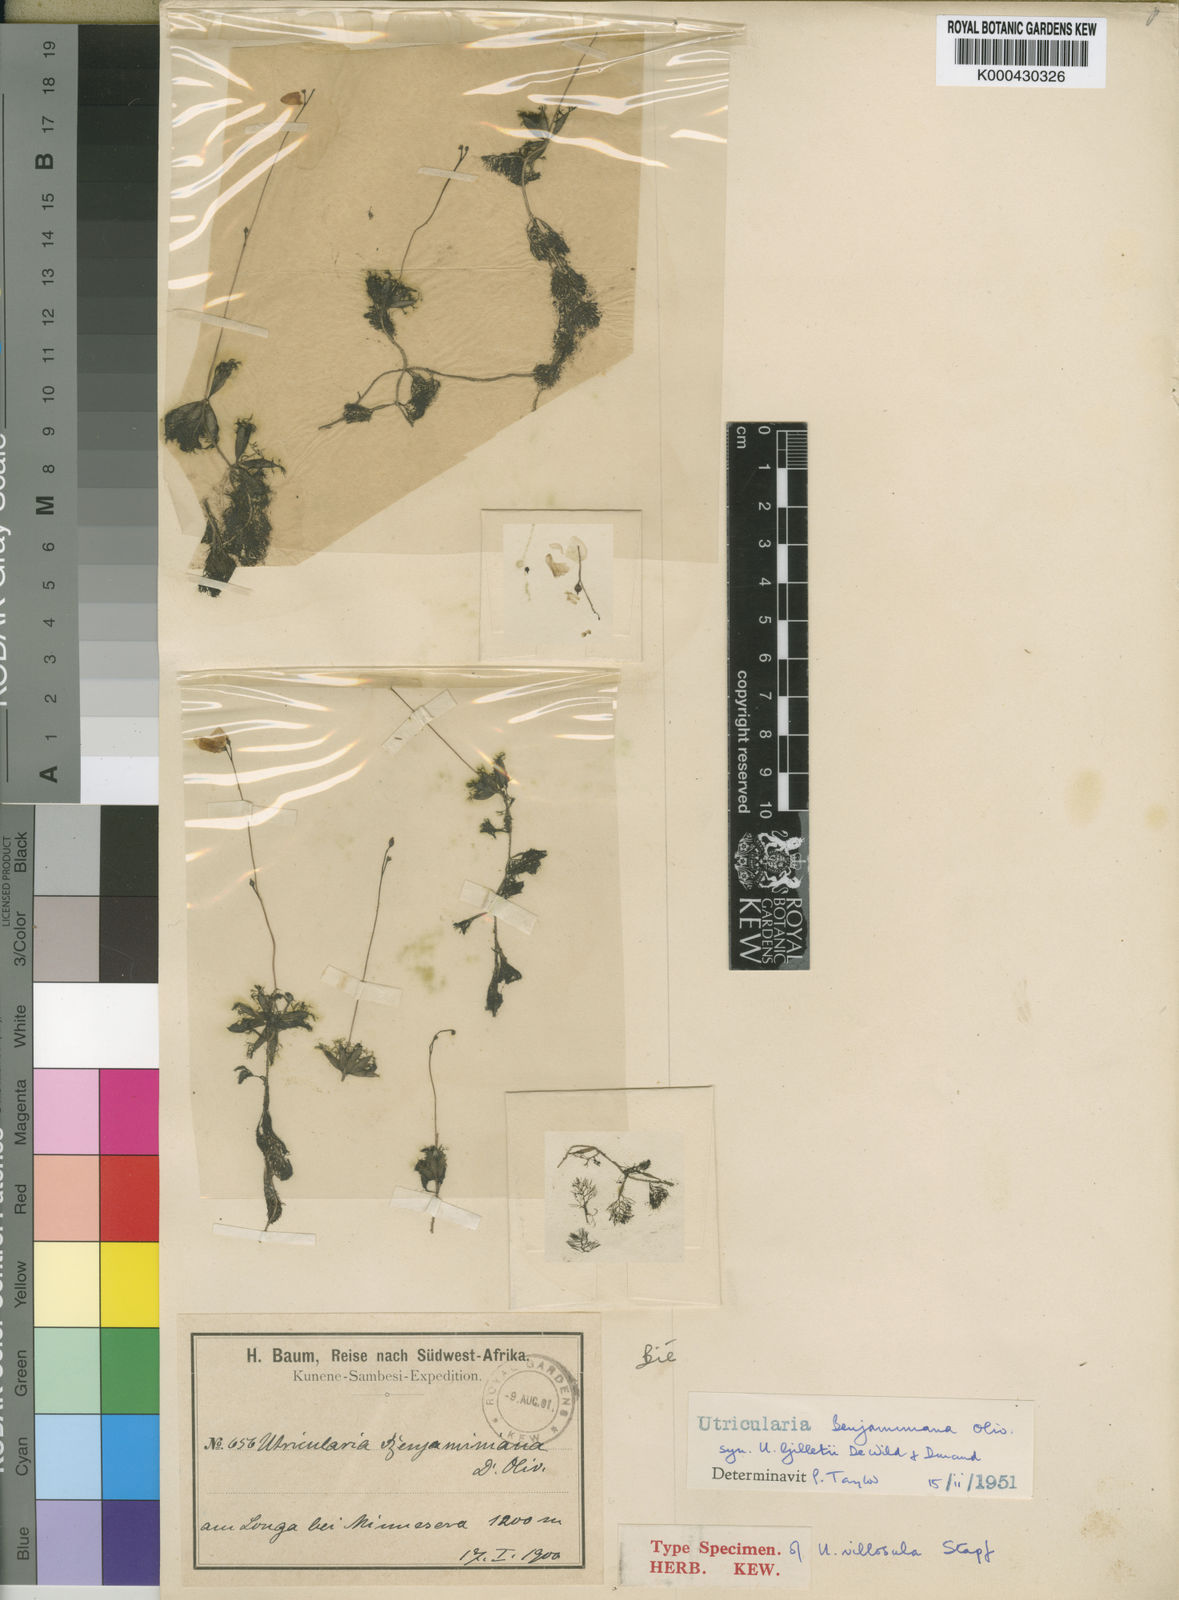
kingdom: Plantae
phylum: Tracheophyta
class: Magnoliopsida
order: Lamiales
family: Lentibulariaceae
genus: Utricularia
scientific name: Utricularia benjaminiana
